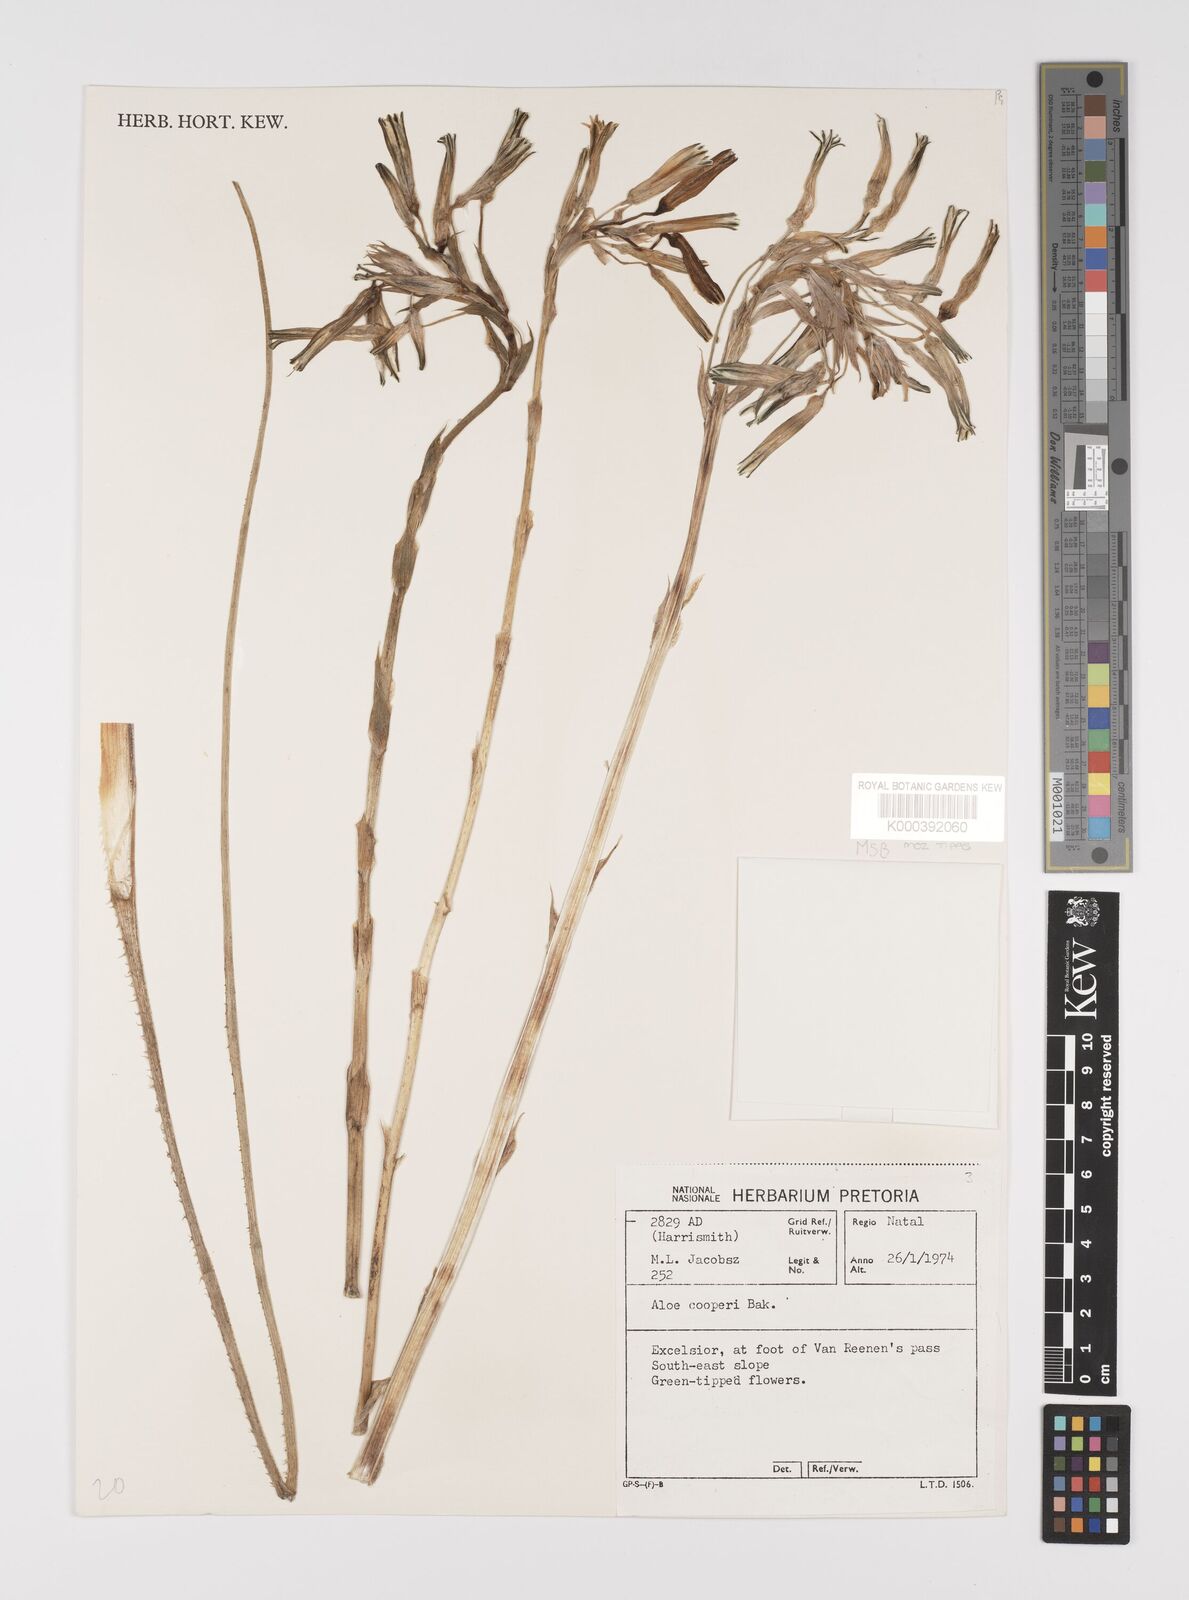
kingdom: Plantae
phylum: Tracheophyta
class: Liliopsida
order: Asparagales
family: Asphodelaceae
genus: Aloe
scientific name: Aloe cooperi
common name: Cooper's aloe
